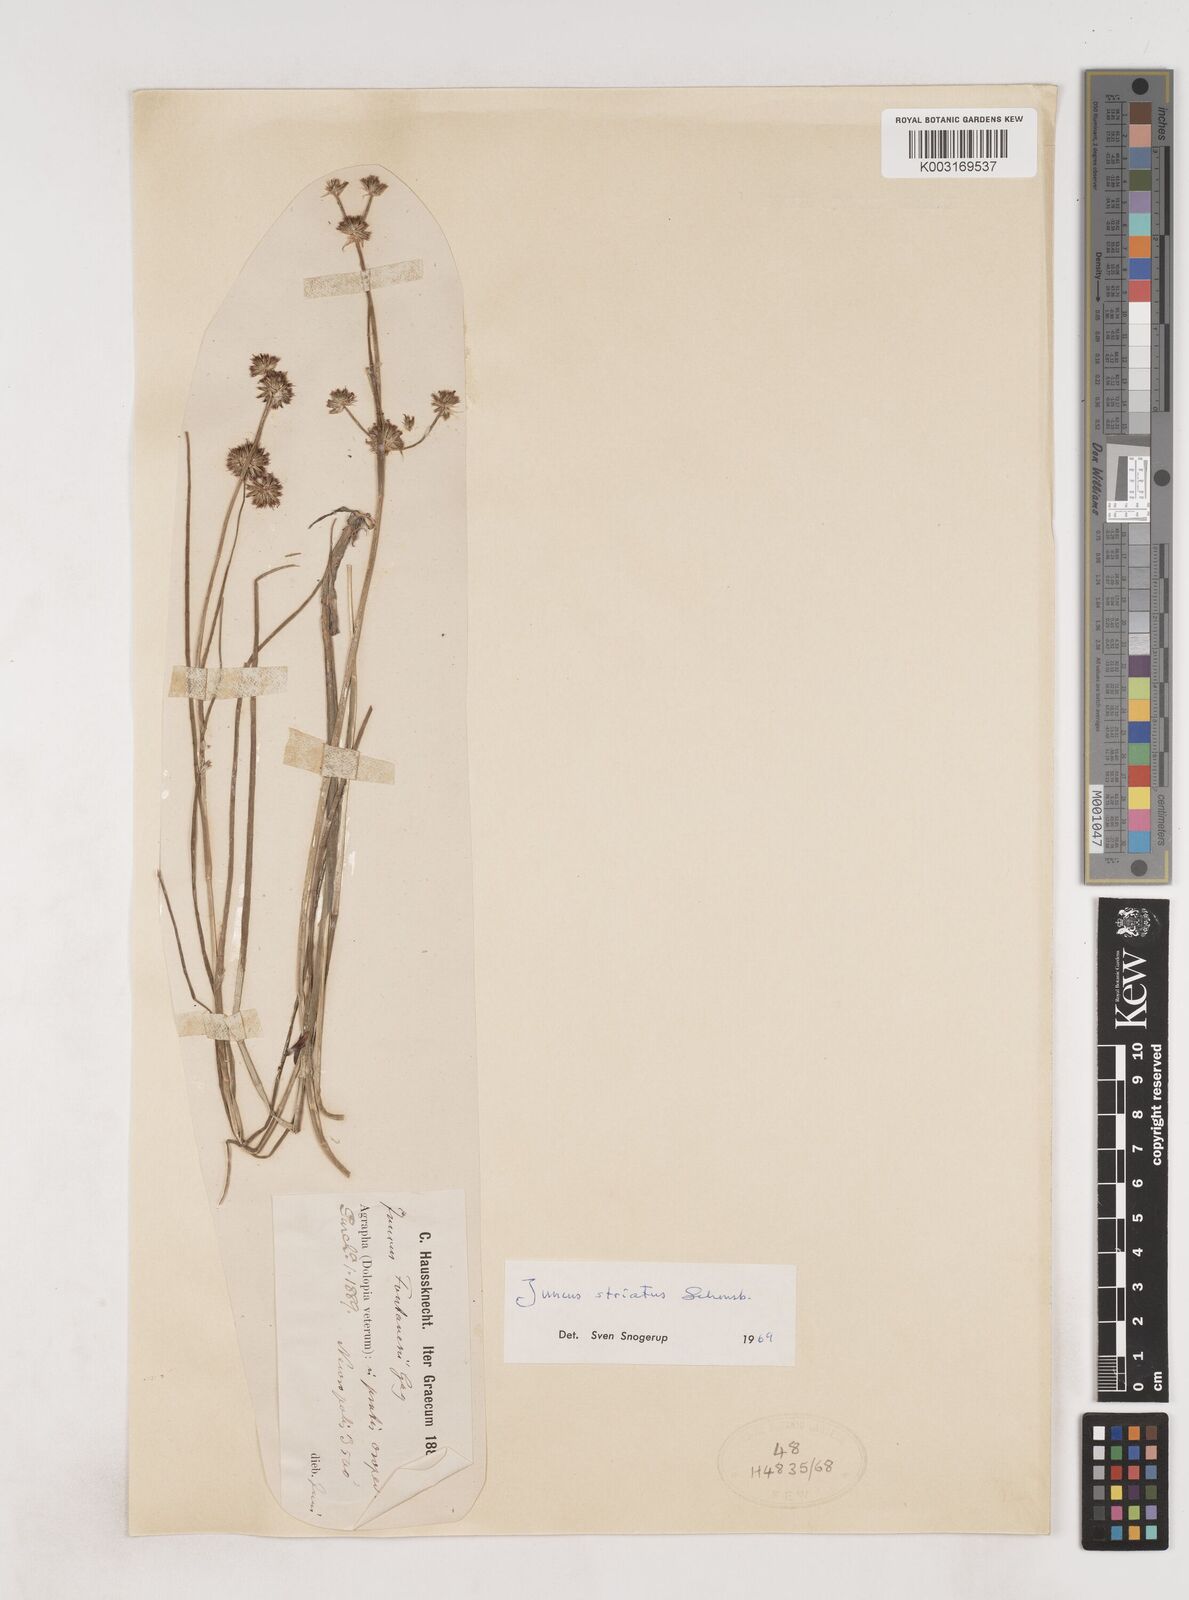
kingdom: Plantae
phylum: Tracheophyta
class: Liliopsida
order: Poales
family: Juncaceae
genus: Juncus
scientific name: Juncus striatus
